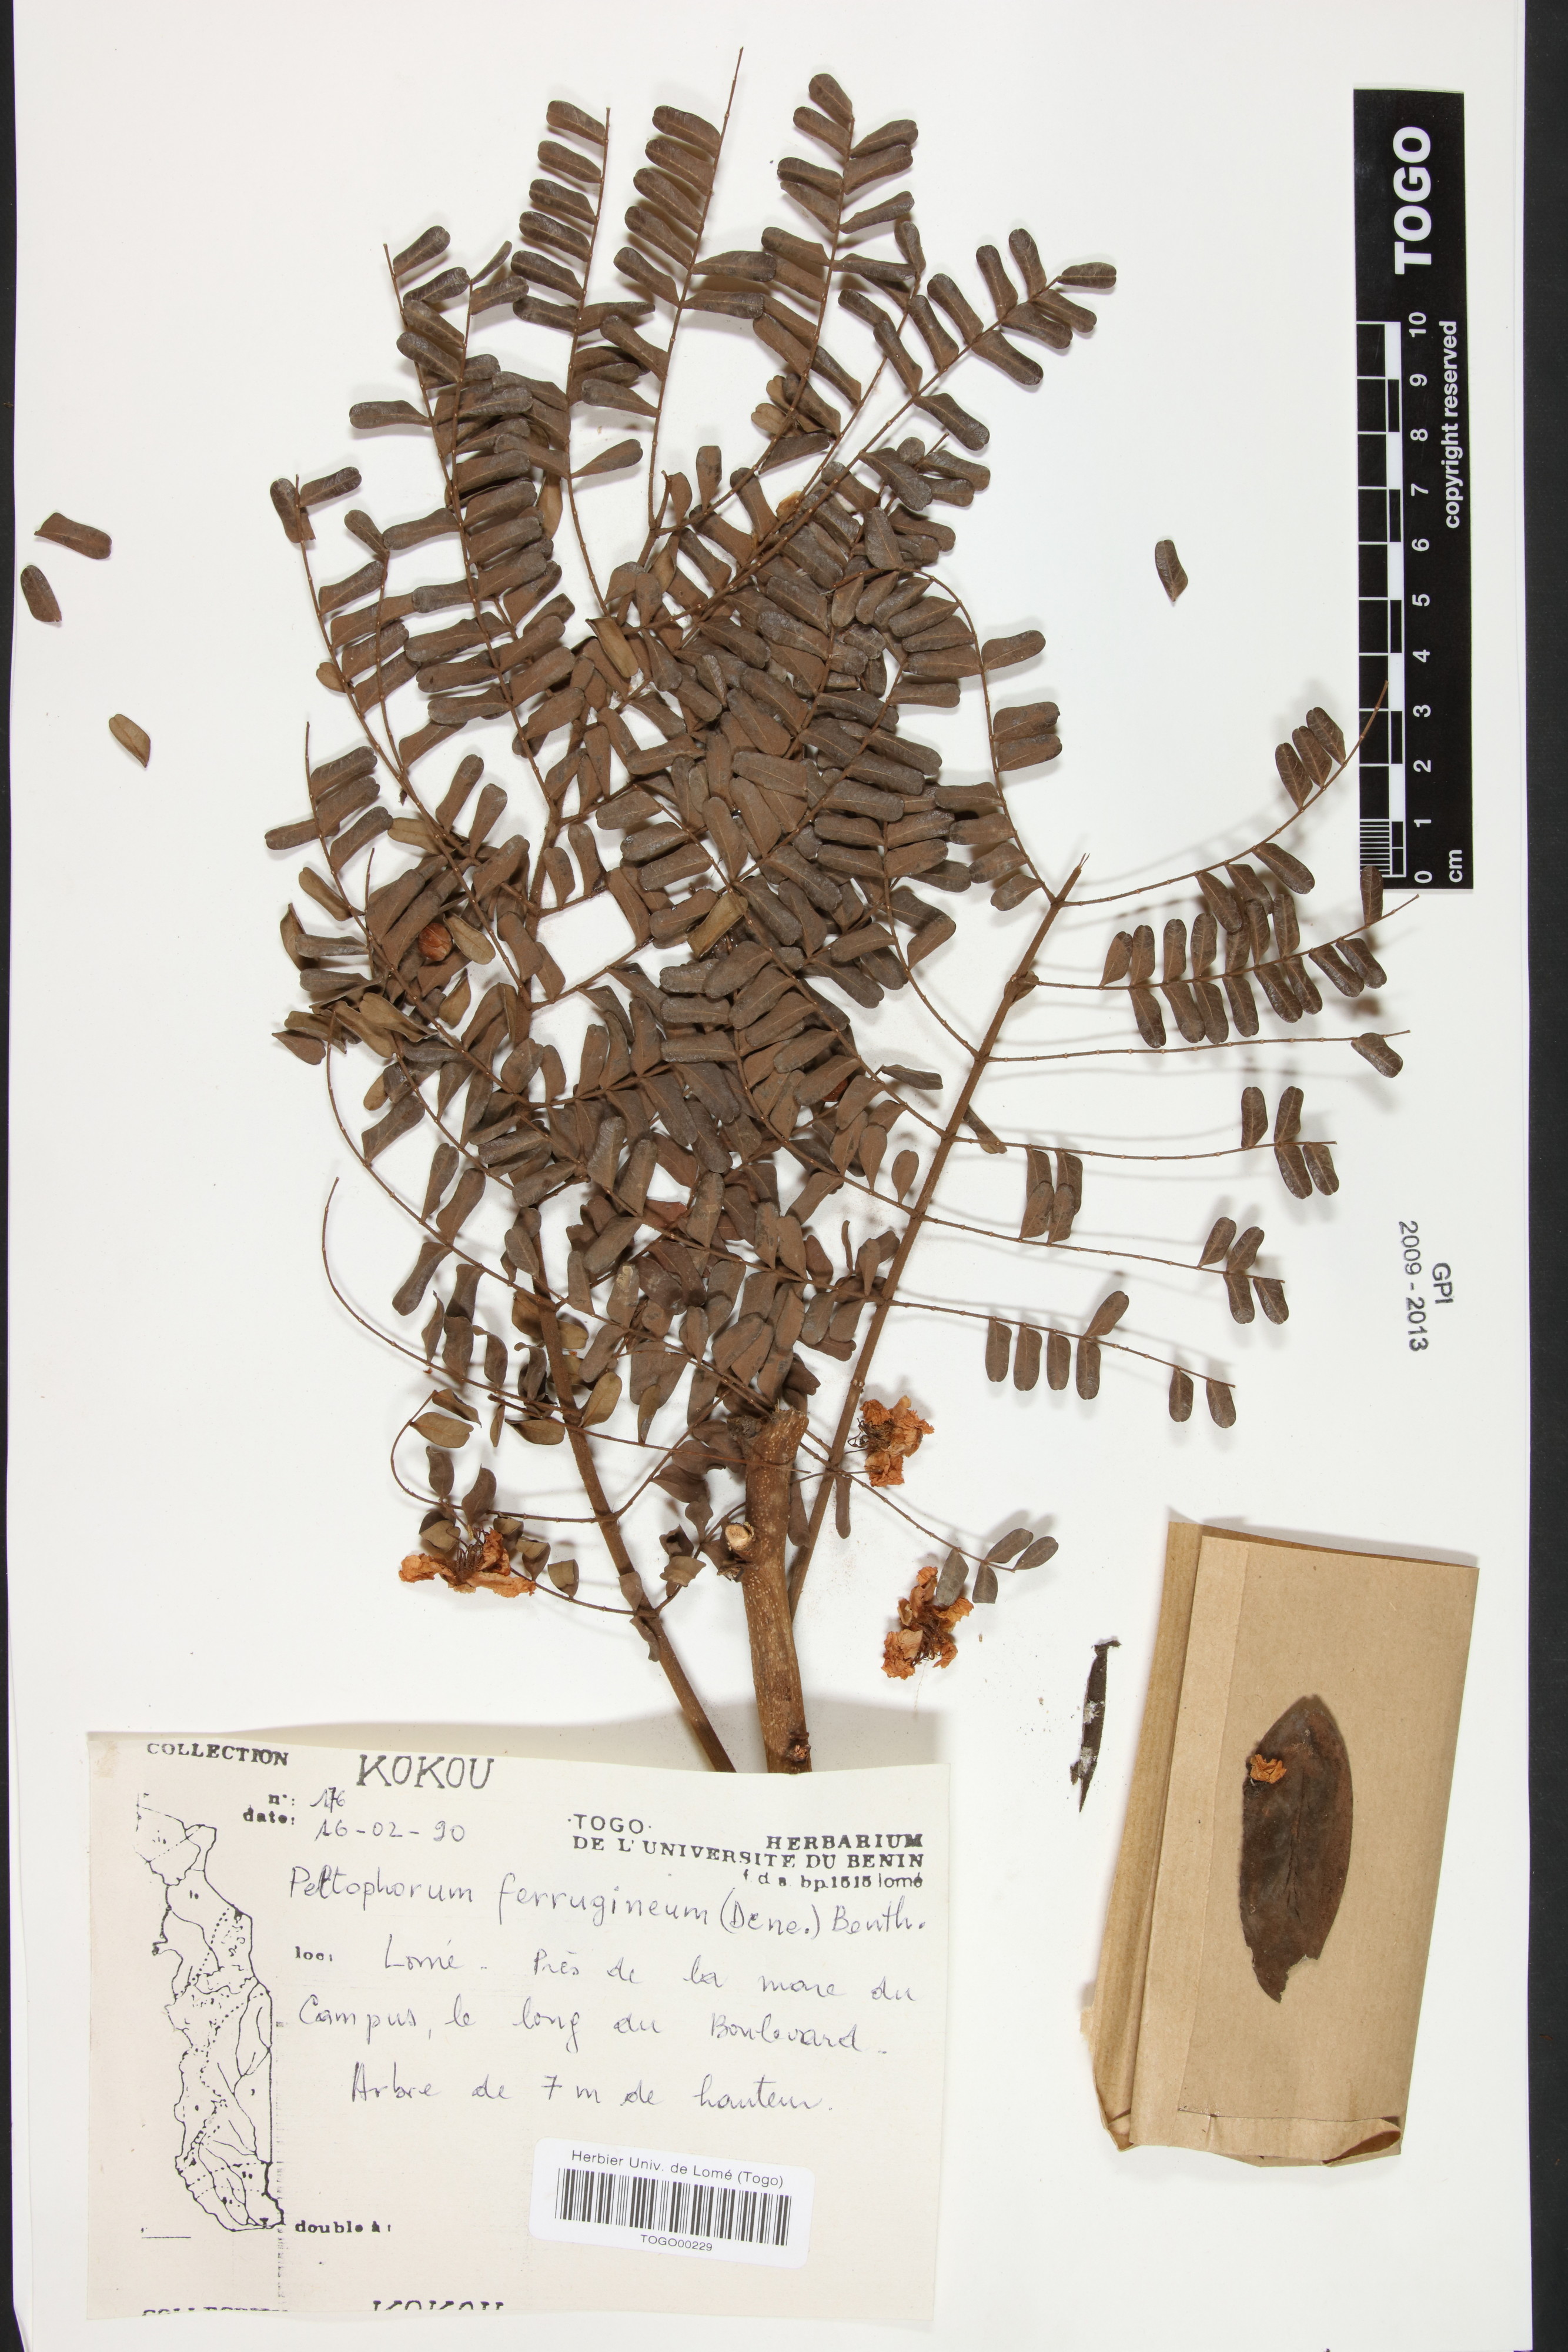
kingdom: Plantae
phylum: Tracheophyta
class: Magnoliopsida
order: Fabales
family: Fabaceae
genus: Peltophorum
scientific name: Peltophorum pterocarpum
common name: Yellow flame
